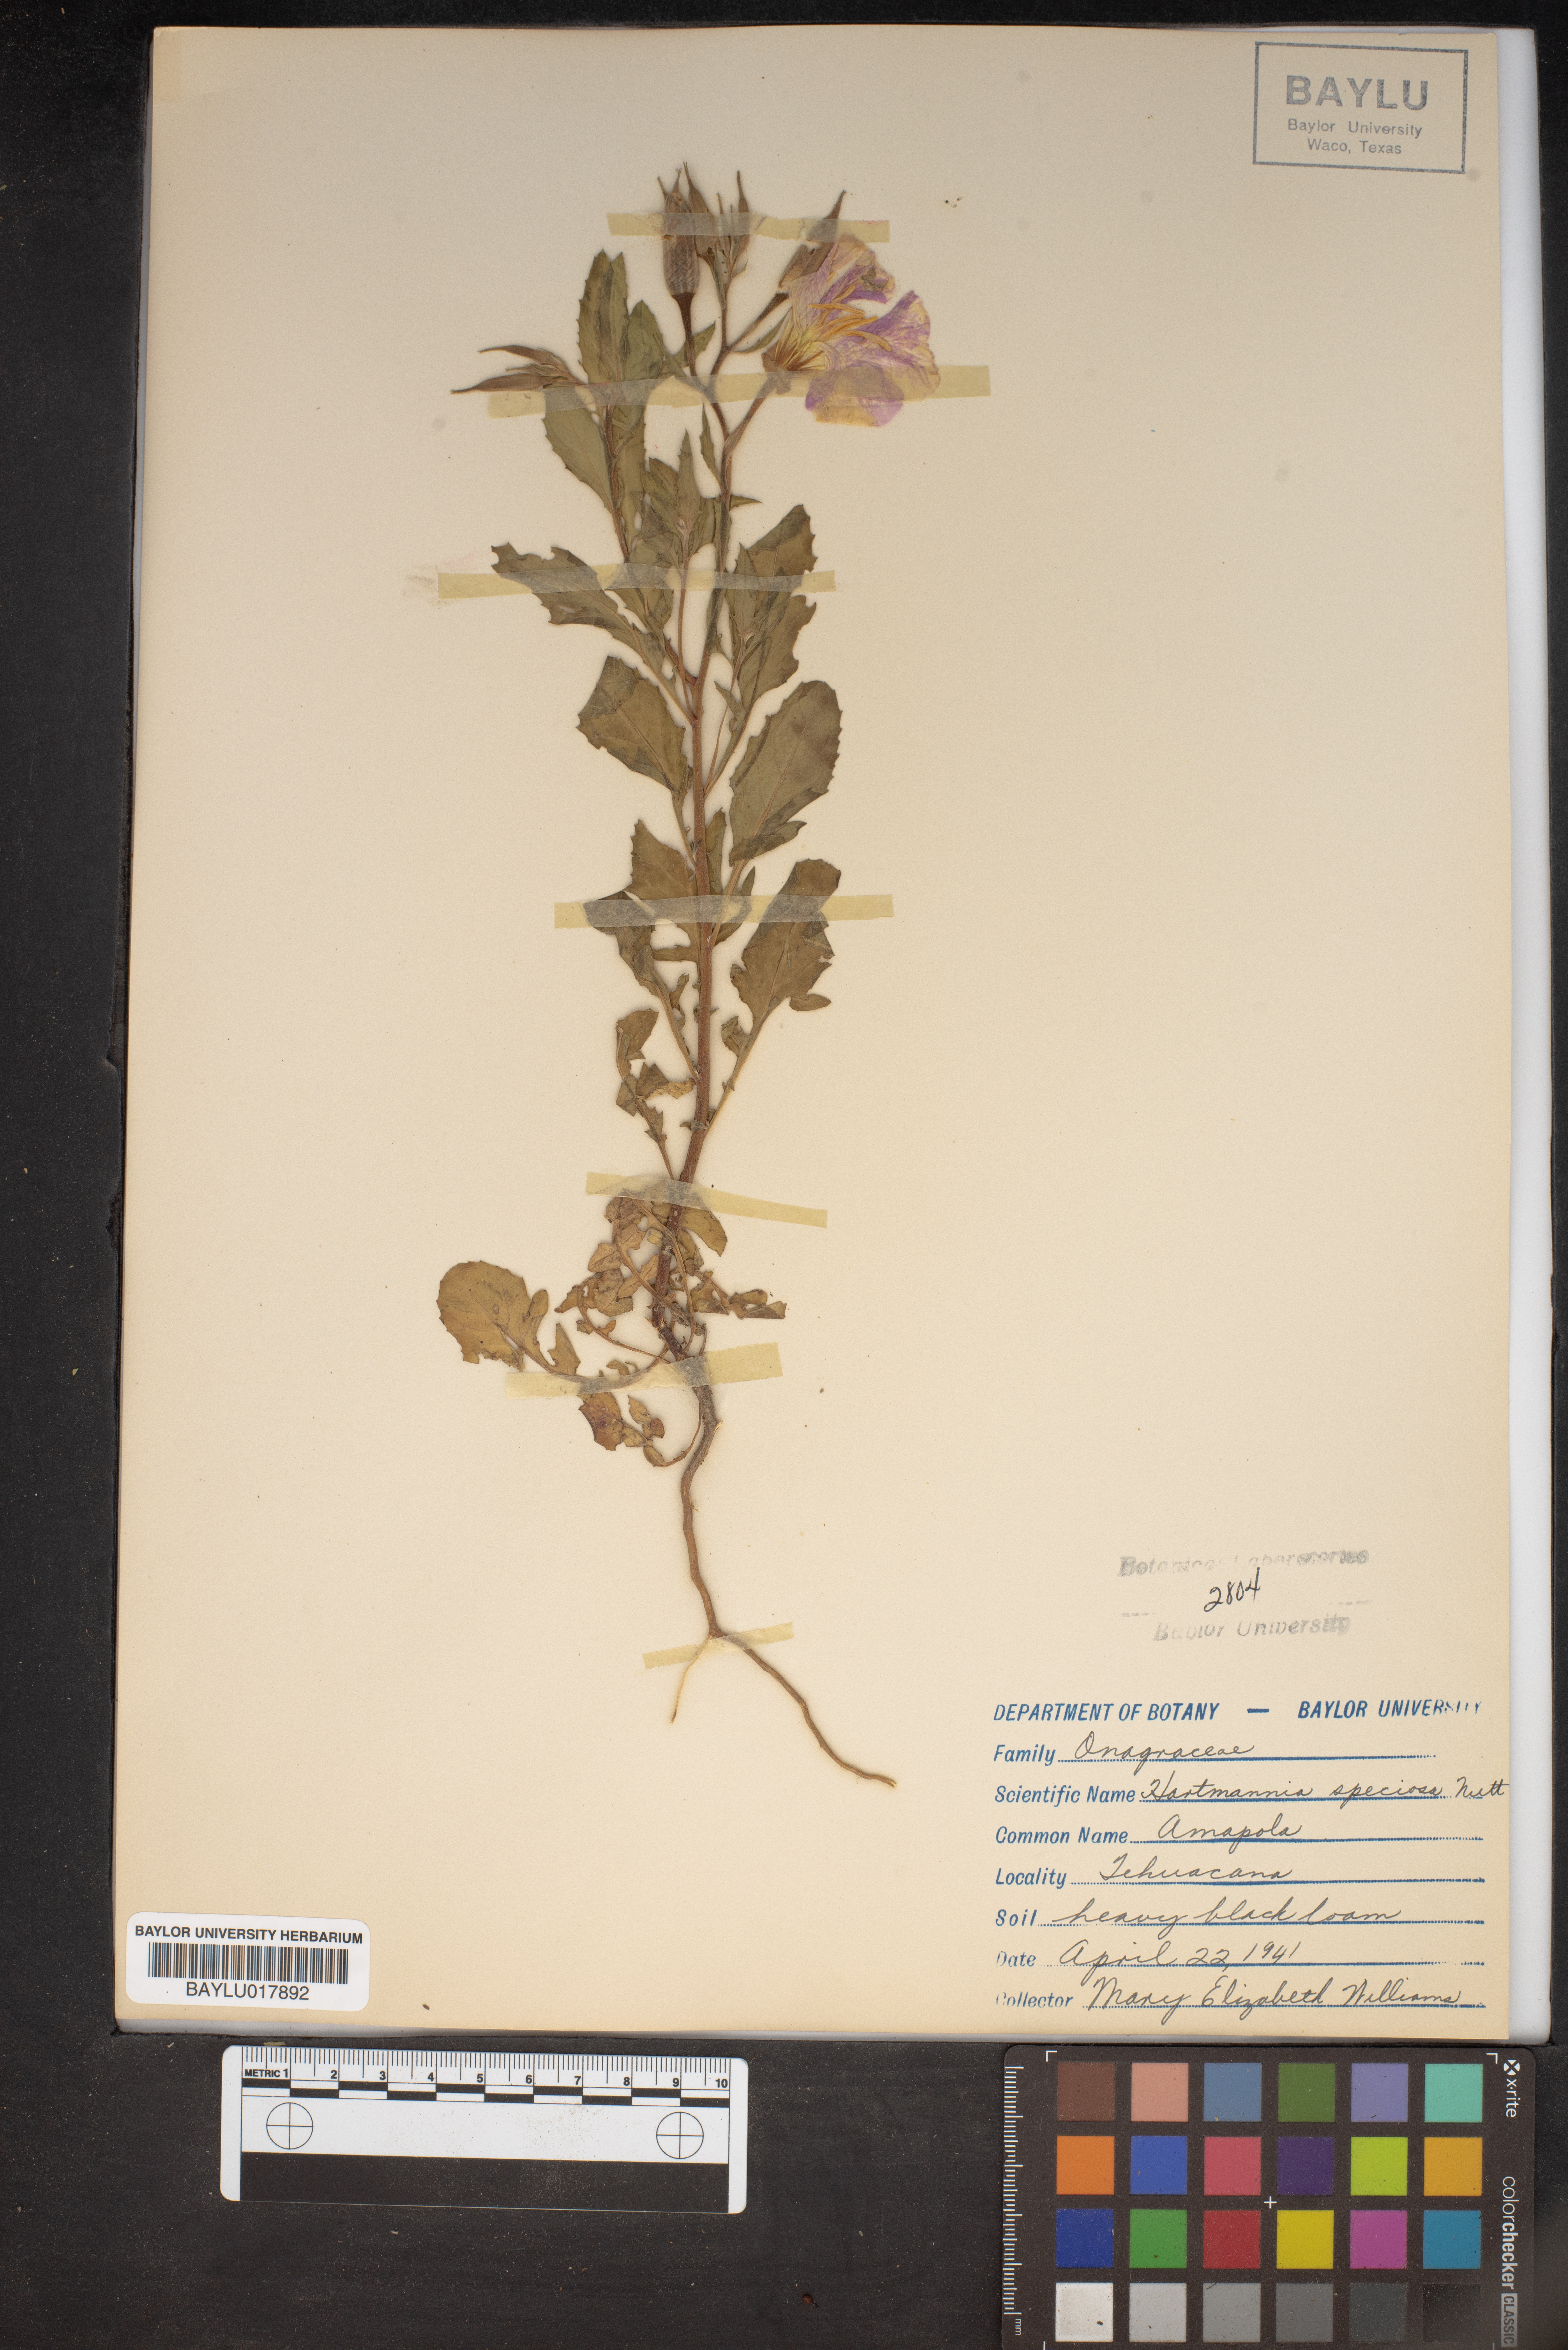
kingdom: Plantae
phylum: Tracheophyta
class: Magnoliopsida
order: Myrtales
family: Onagraceae
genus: Oenothera
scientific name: Oenothera speciosa
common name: White evening-primrose
